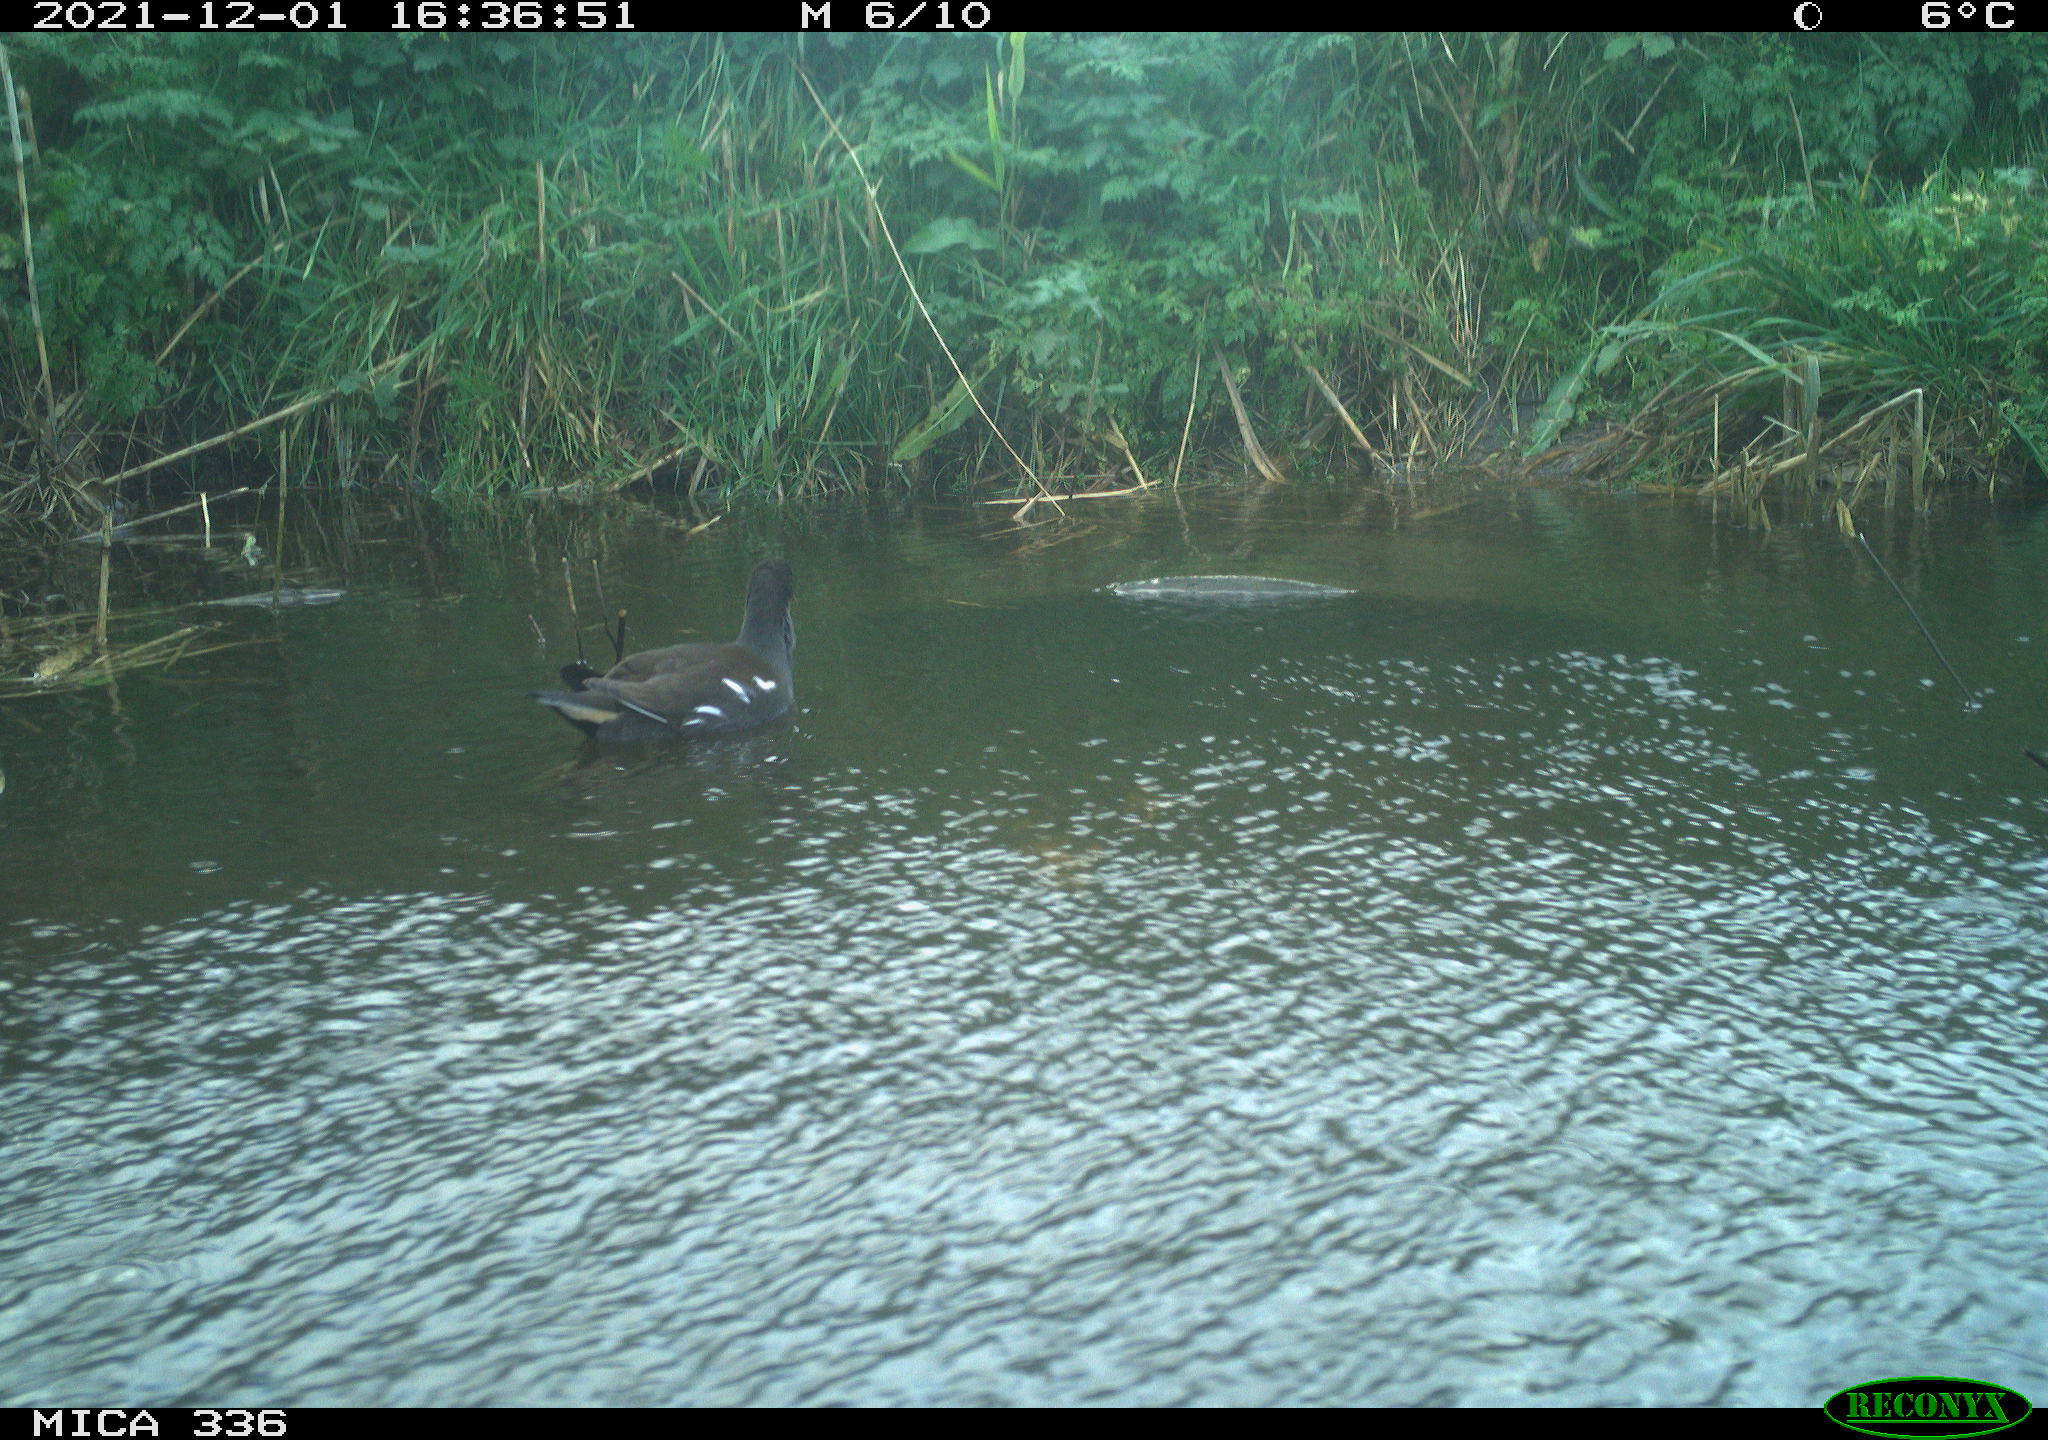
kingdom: Animalia
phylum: Chordata
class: Aves
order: Gruiformes
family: Rallidae
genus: Gallinula
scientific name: Gallinula chloropus
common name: Common moorhen
